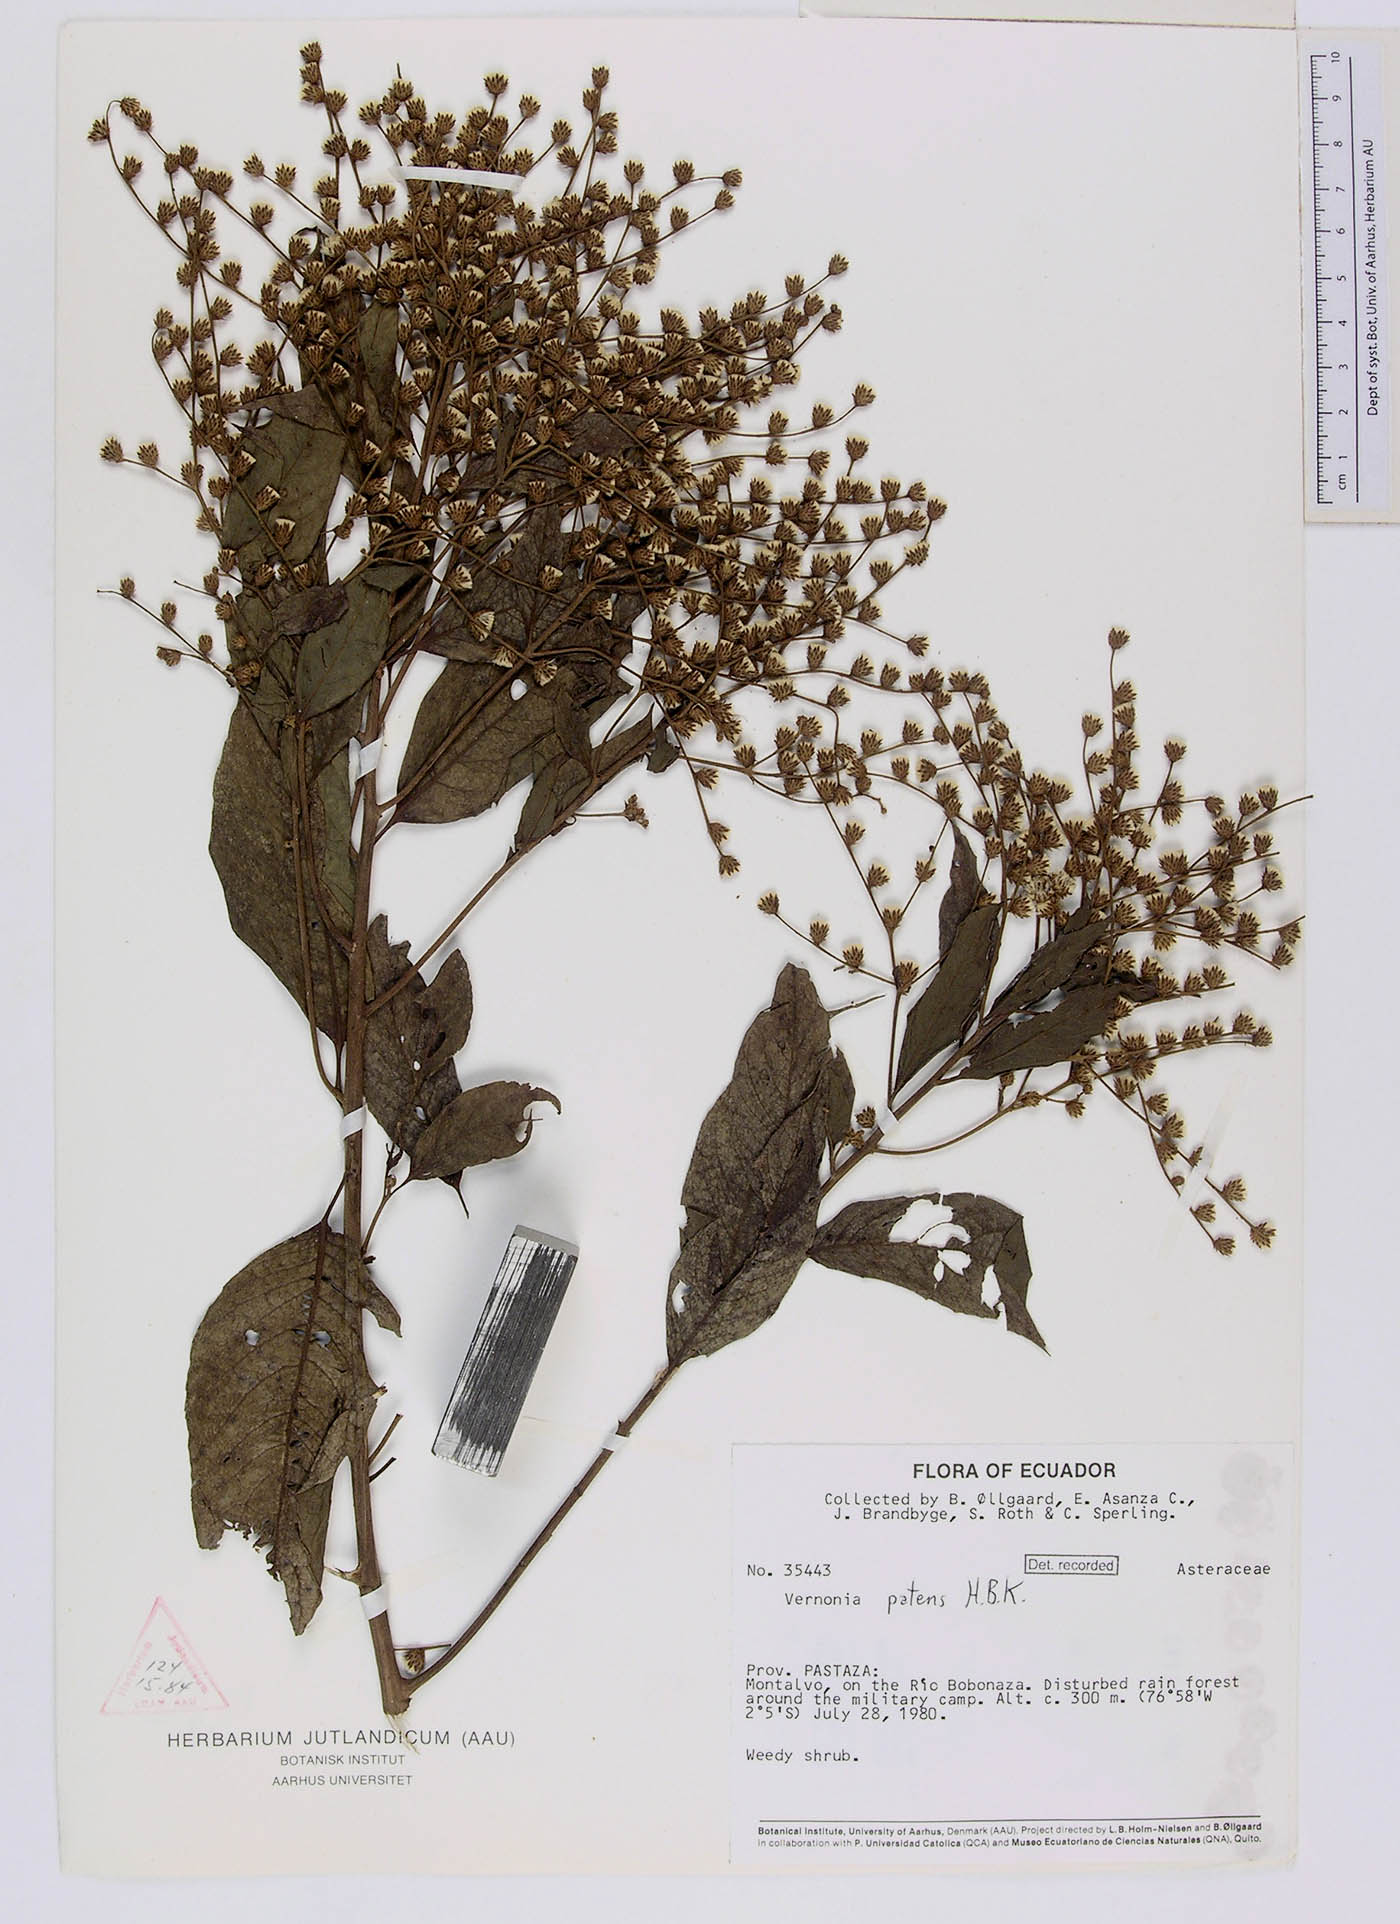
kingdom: Plantae
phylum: Tracheophyta
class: Magnoliopsida
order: Asterales
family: Asteraceae
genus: Vernonanthura
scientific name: Vernonanthura patens
